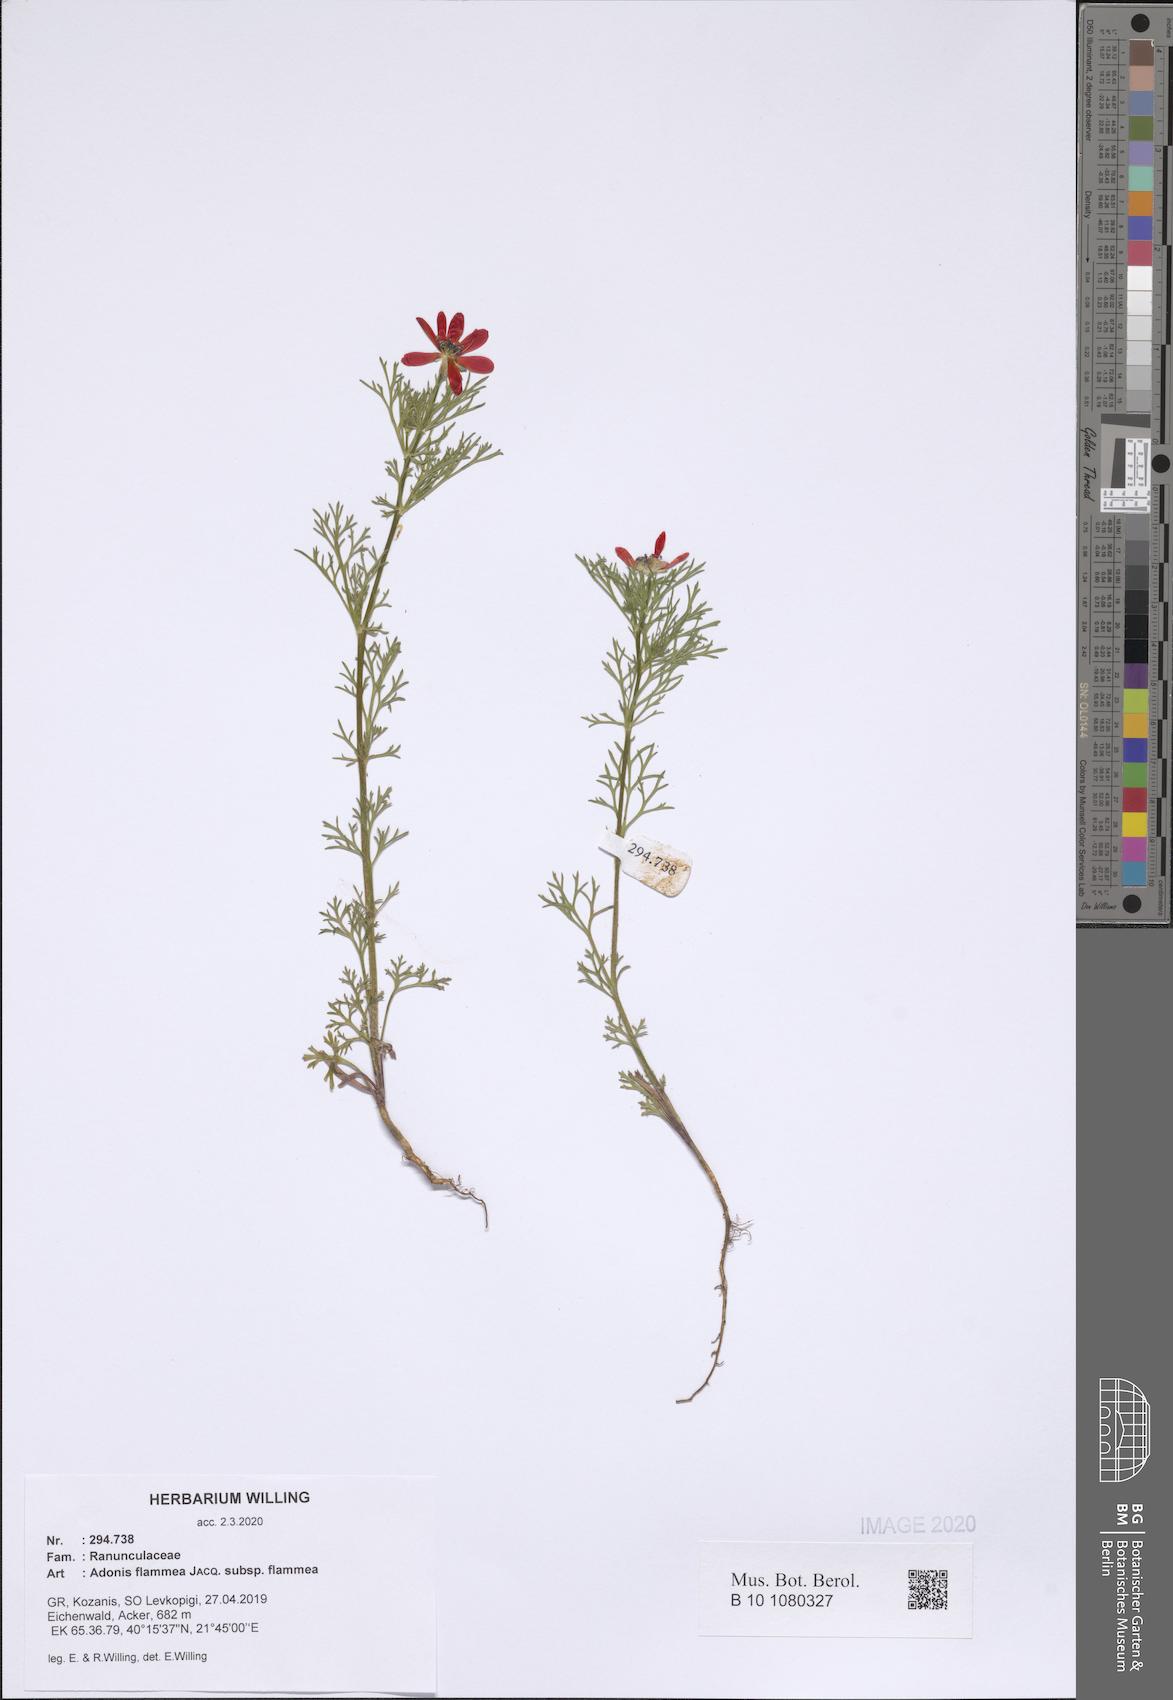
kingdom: Plantae
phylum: Tracheophyta
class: Magnoliopsida
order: Ranunculales
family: Ranunculaceae
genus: Adonis
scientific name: Adonis flammea
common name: Large pheasant's-eye
